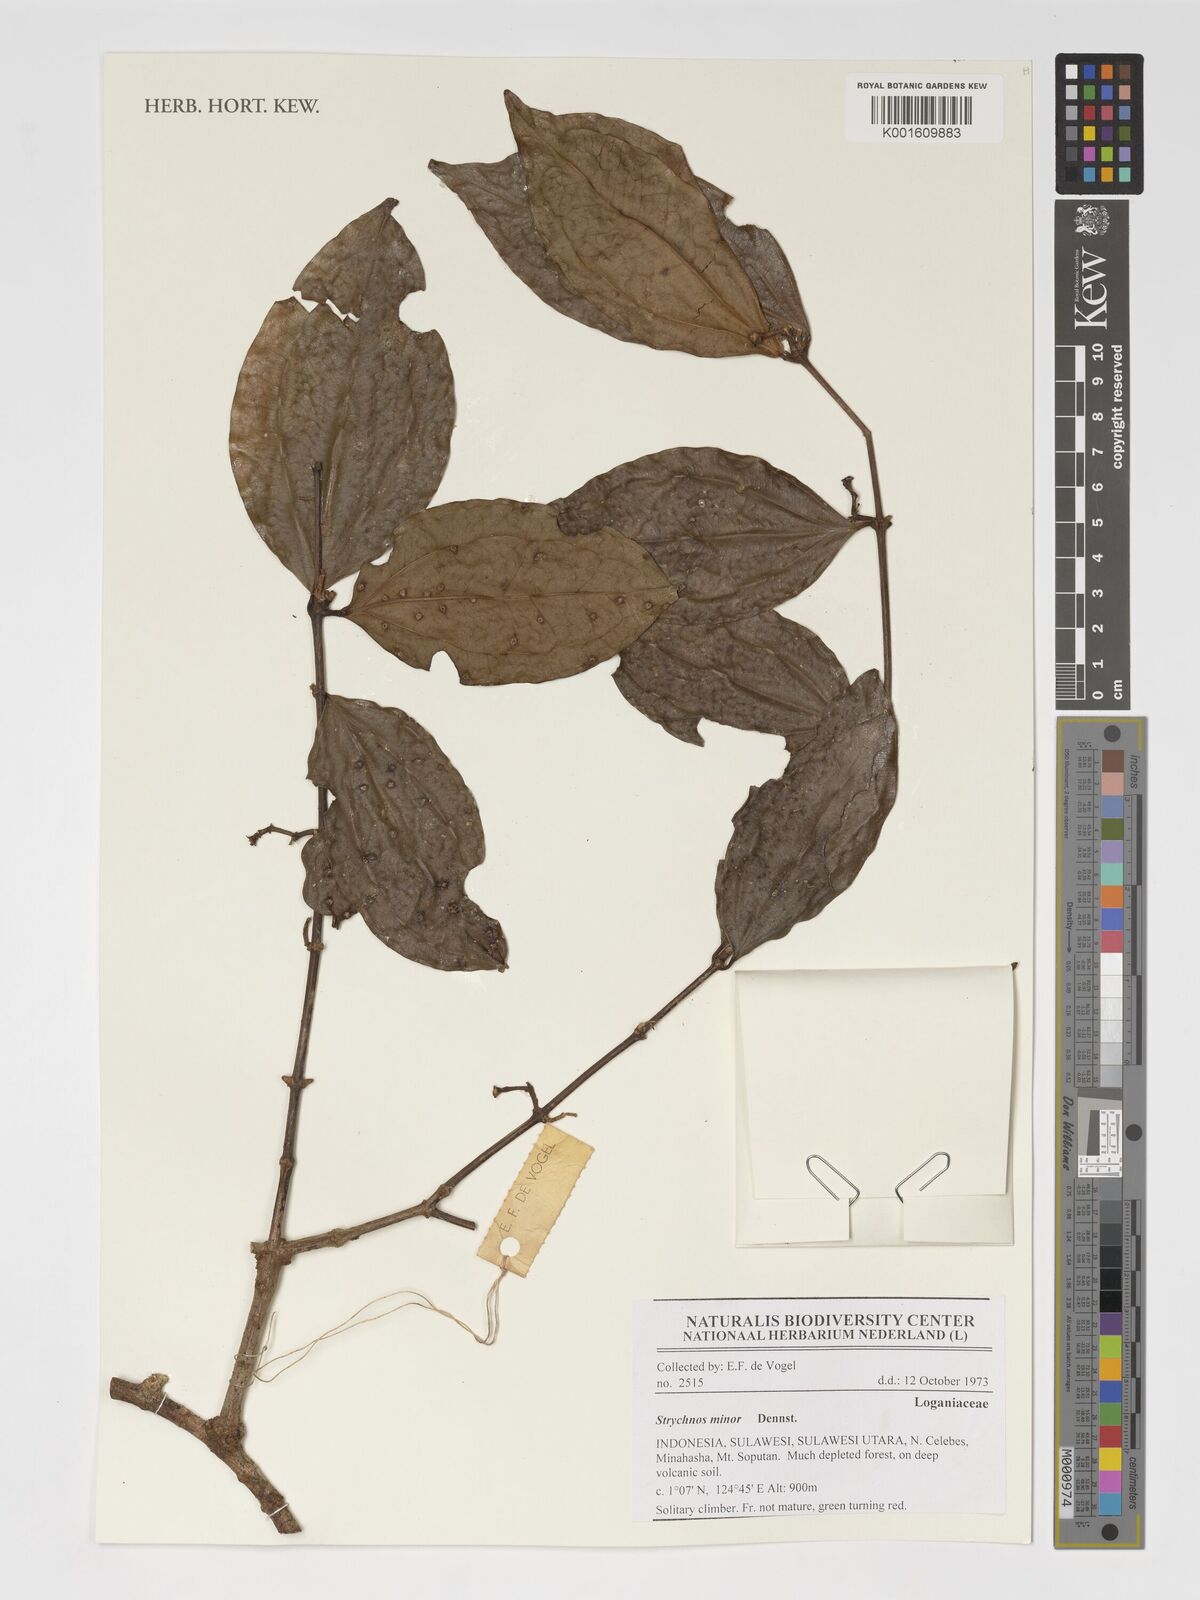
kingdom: Plantae
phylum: Tracheophyta
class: Magnoliopsida
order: Gentianales
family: Loganiaceae
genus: Strychnos
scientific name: Strychnos minor
